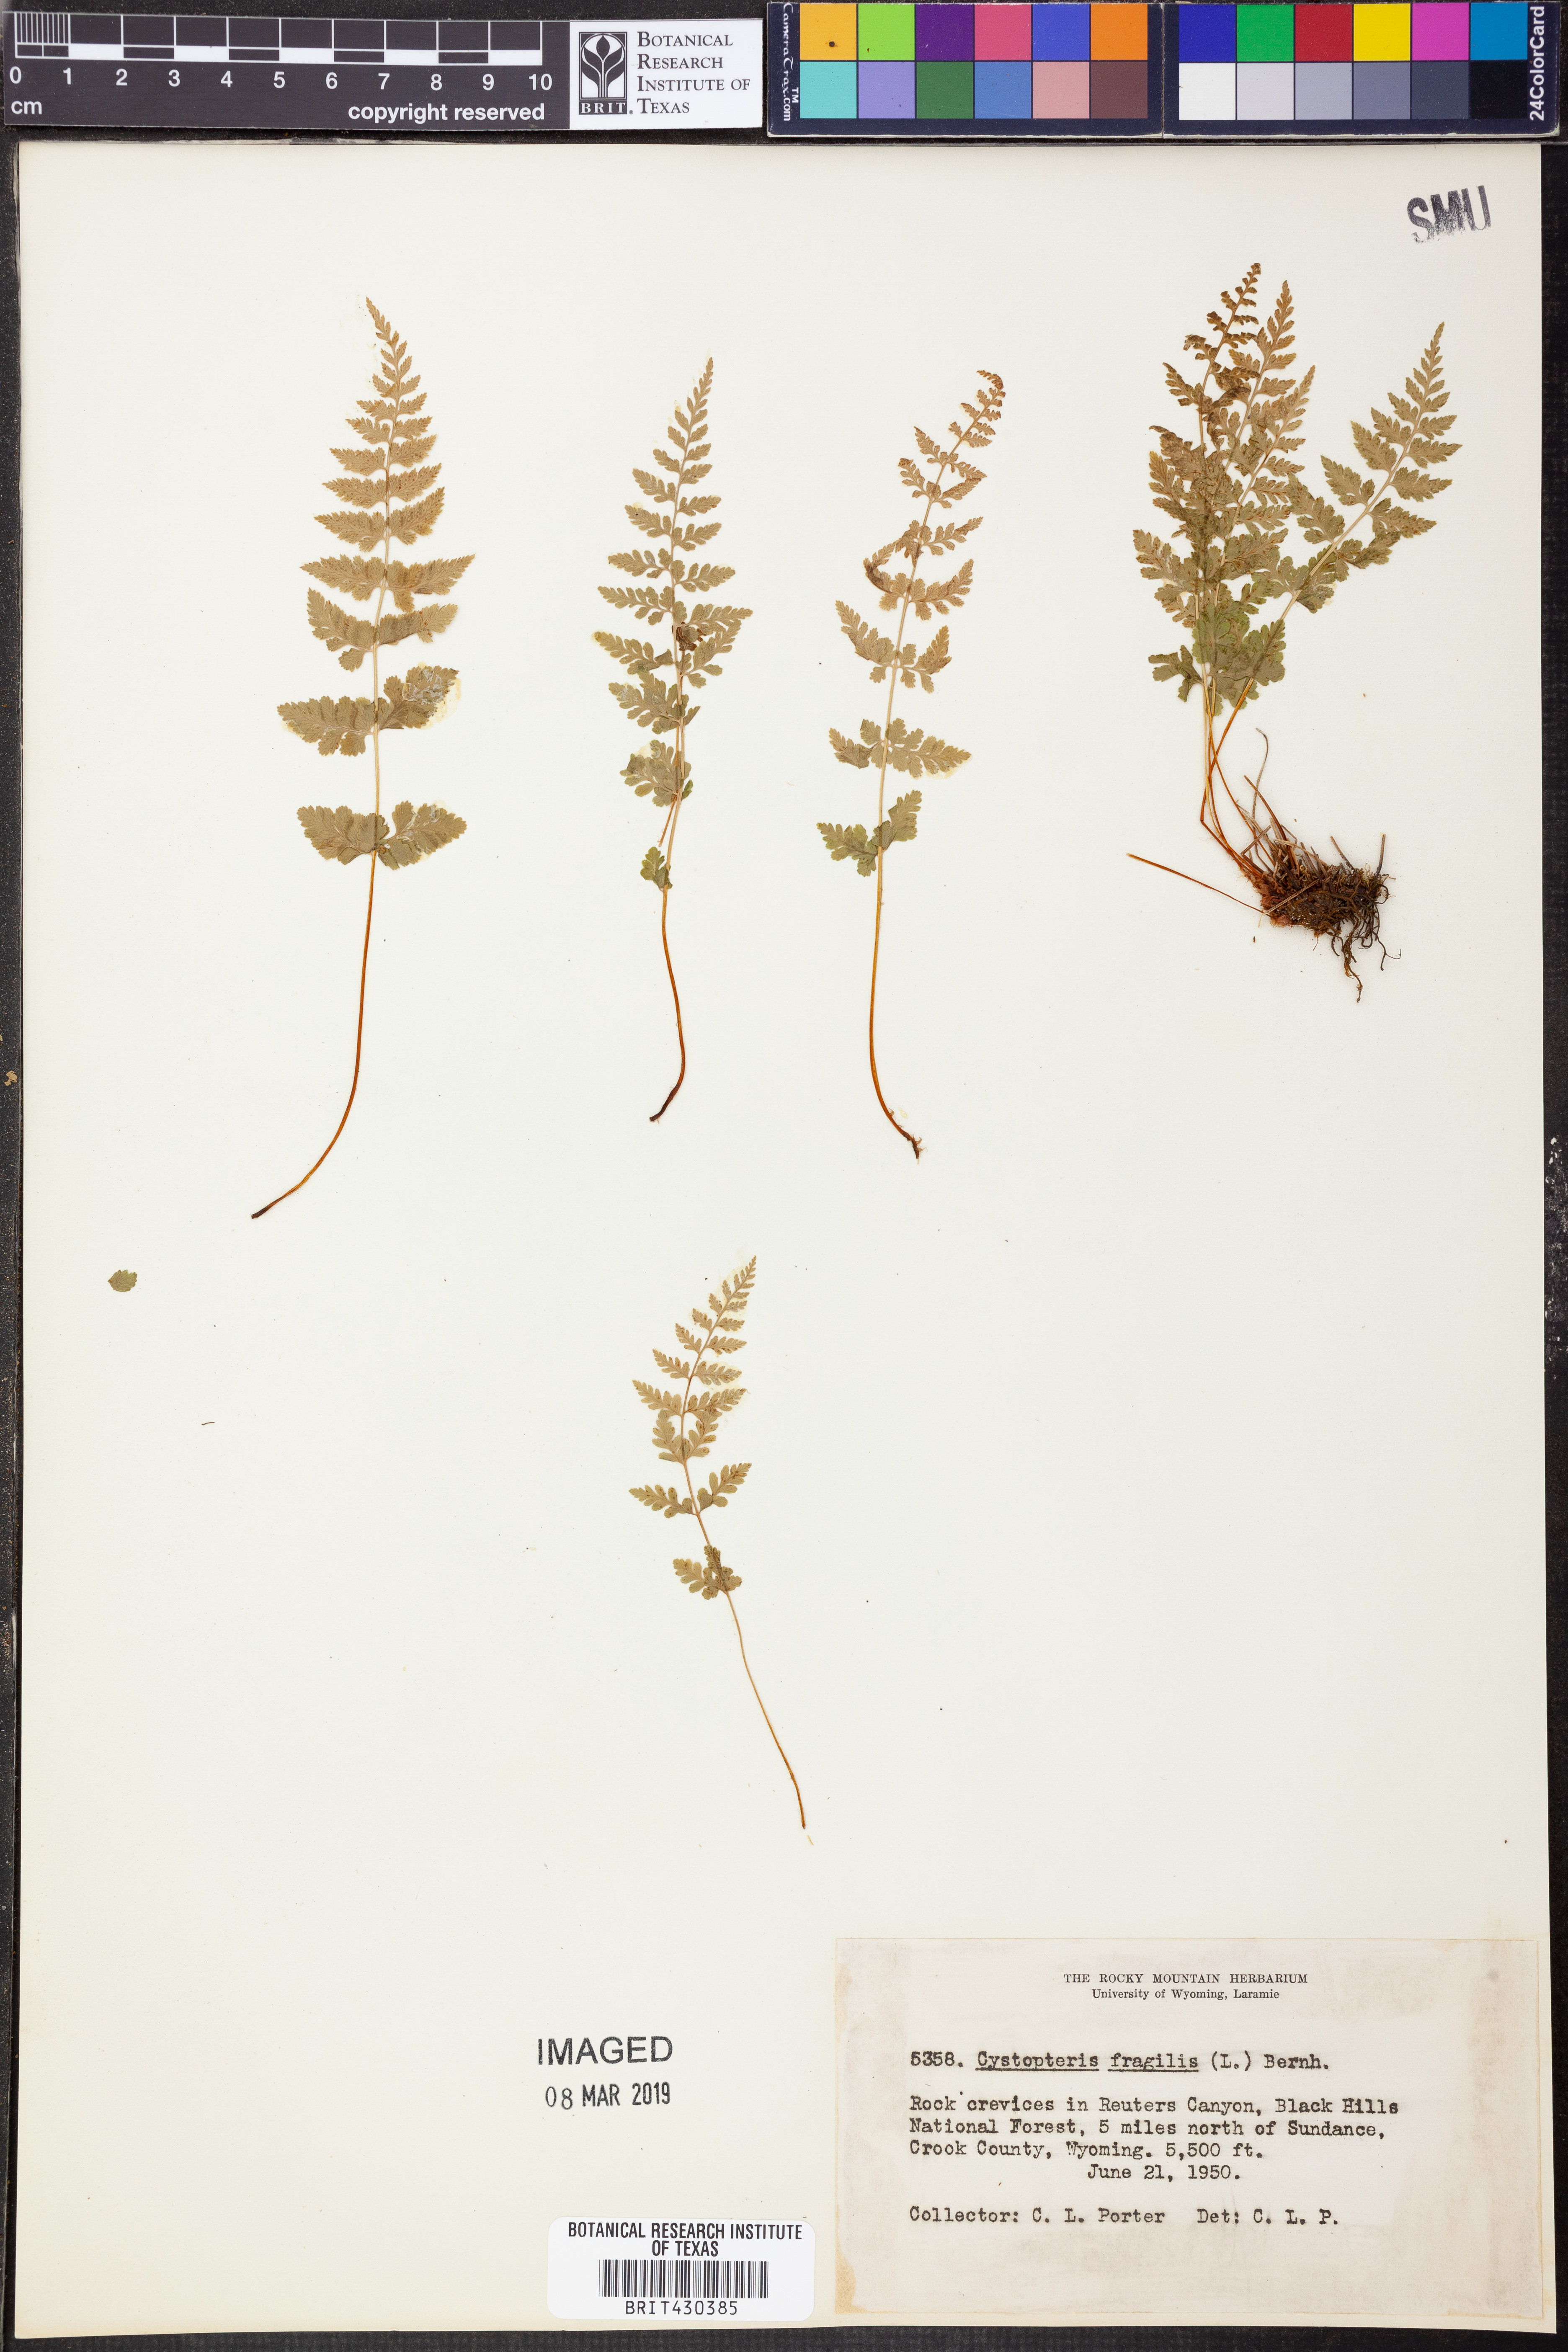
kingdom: Plantae
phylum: Tracheophyta
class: Polypodiopsida
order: Polypodiales
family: Cystopteridaceae
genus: Cystopteris
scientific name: Cystopteris fragilis
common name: Brittle bladder fern
